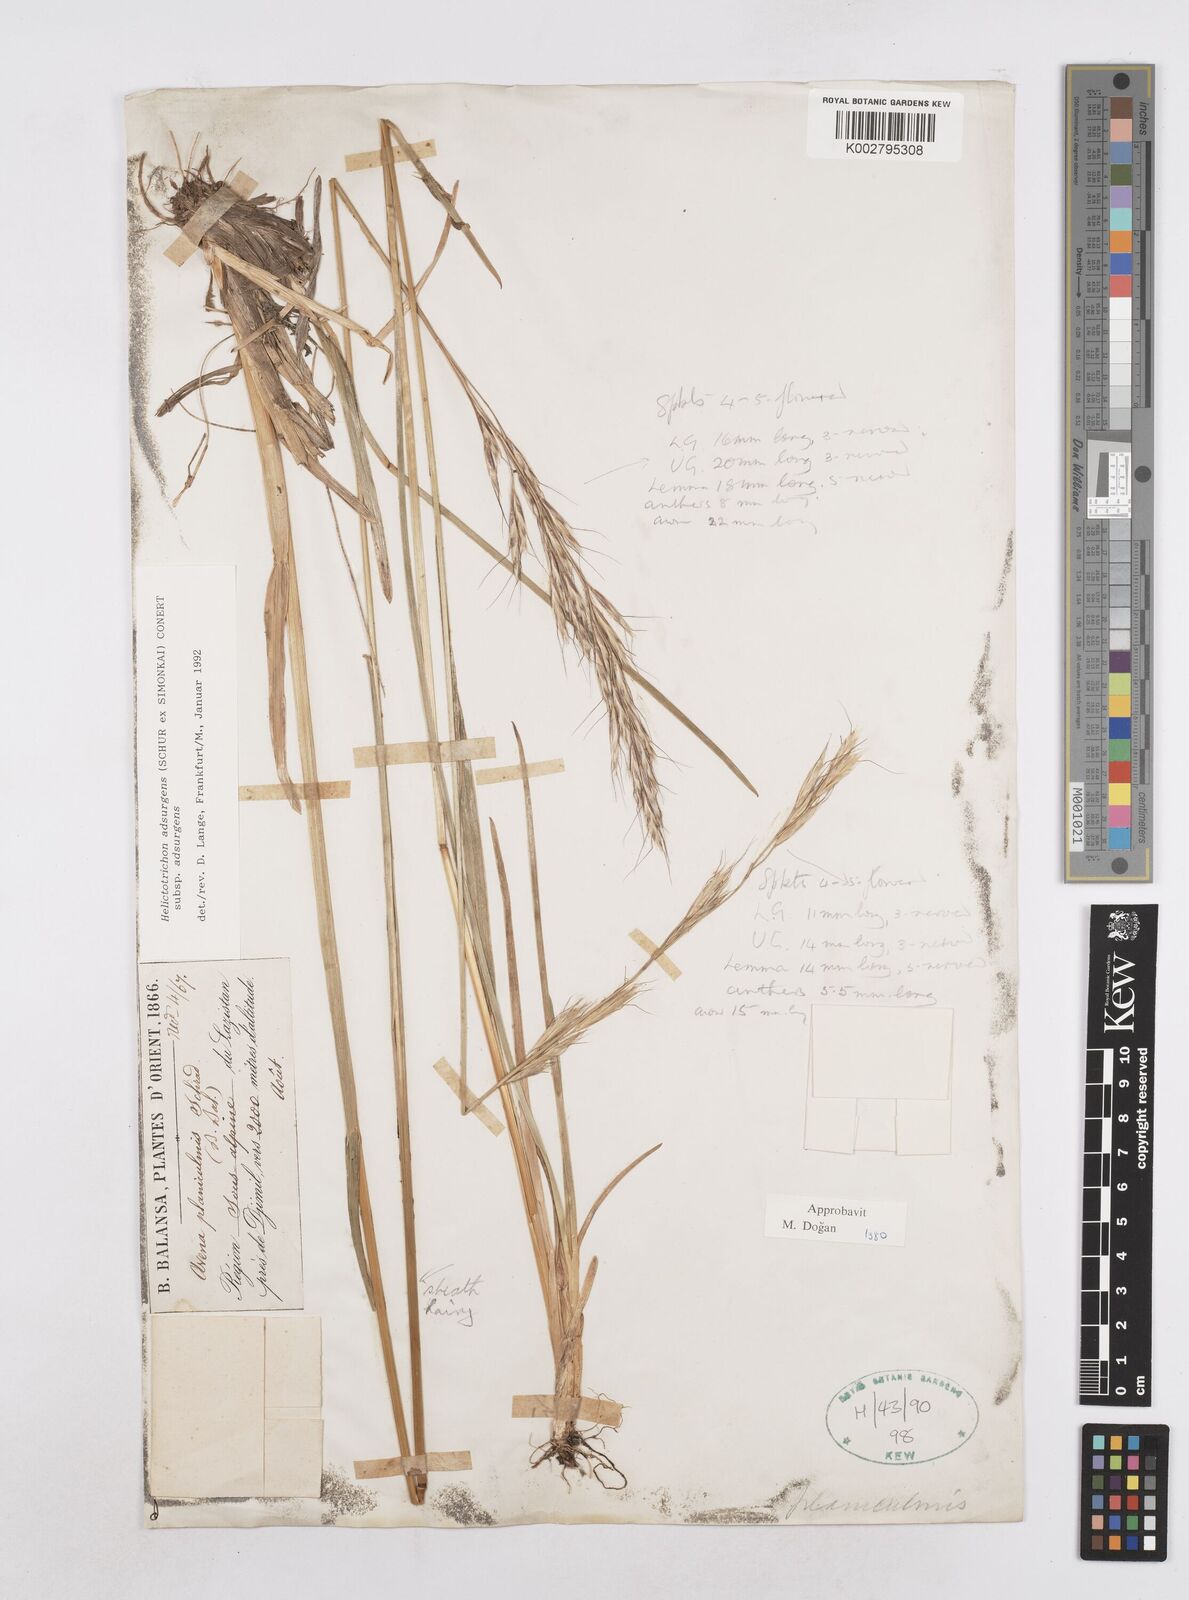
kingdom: Plantae
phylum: Tracheophyta
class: Liliopsida
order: Poales
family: Poaceae
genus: Helictochloa
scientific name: Helictochloa pratensis
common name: Meadow oat grass
